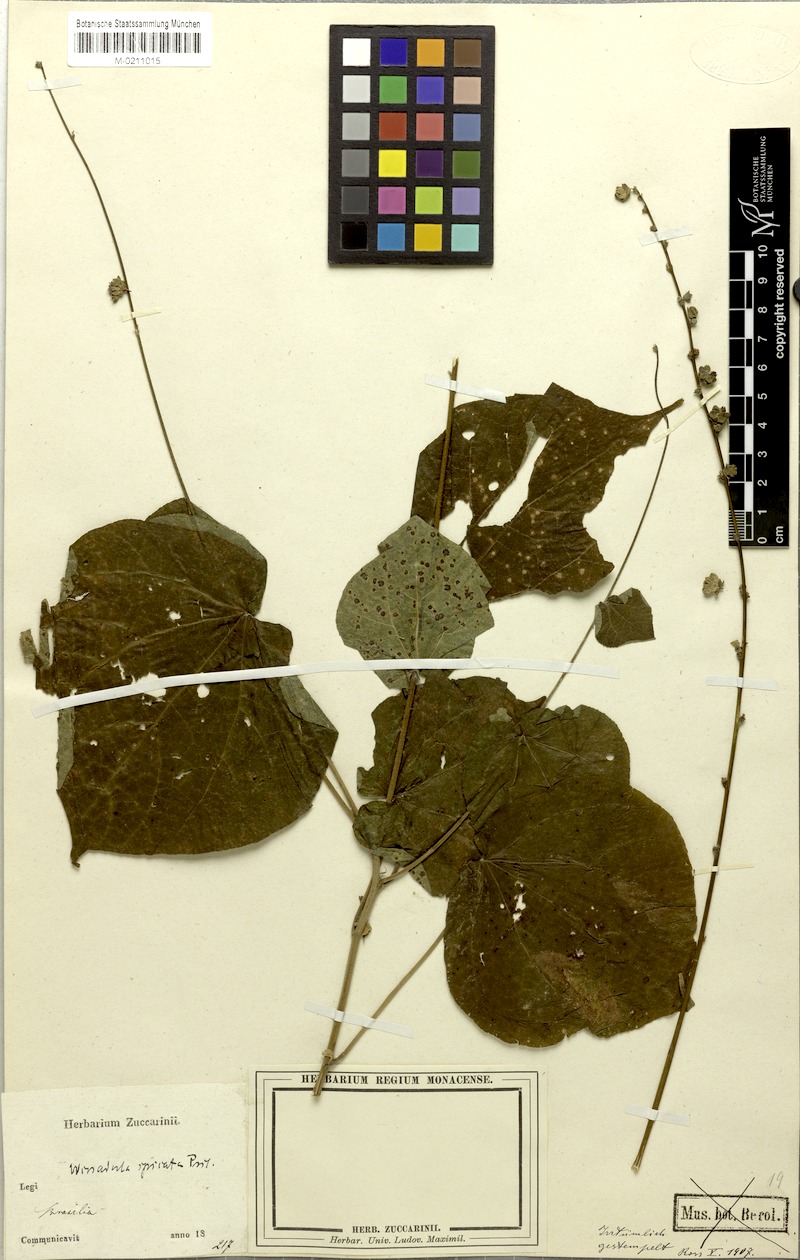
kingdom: Plantae
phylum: Tracheophyta
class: Magnoliopsida
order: Malvales
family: Malvaceae
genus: Allobriquetia
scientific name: Allobriquetia spicata
